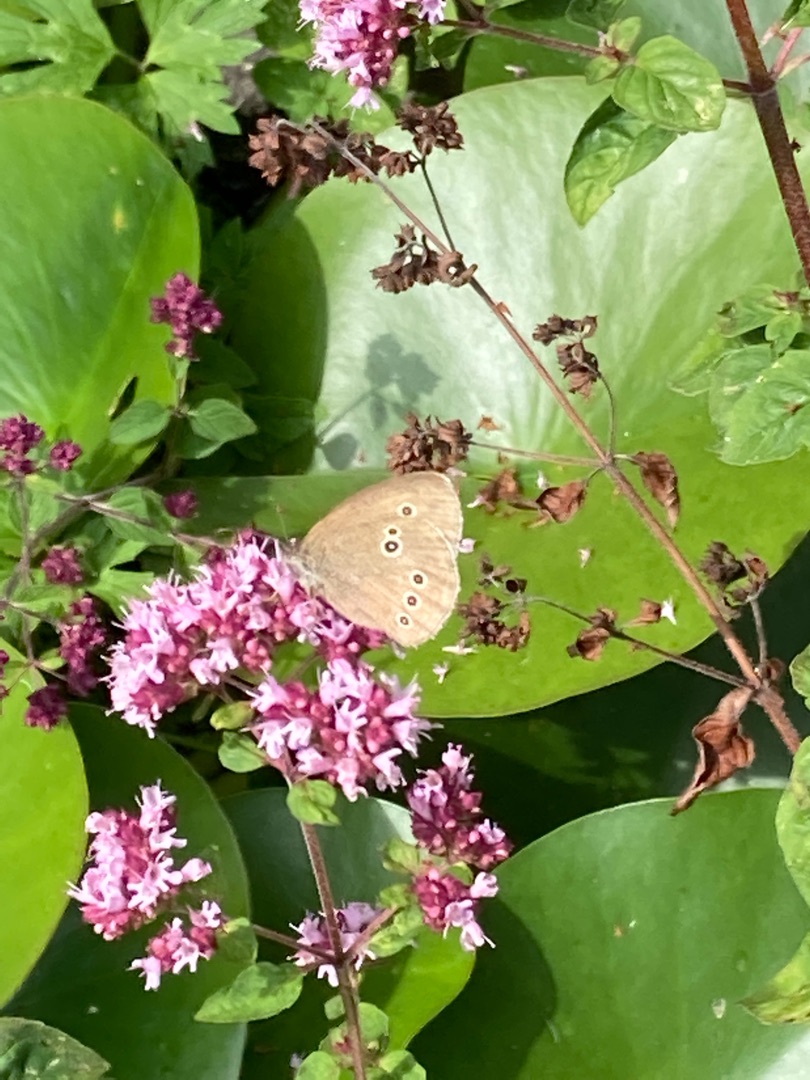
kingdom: Animalia
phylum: Arthropoda
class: Insecta
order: Lepidoptera
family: Nymphalidae
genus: Aphantopus
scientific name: Aphantopus hyperantus
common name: Engrandøje
